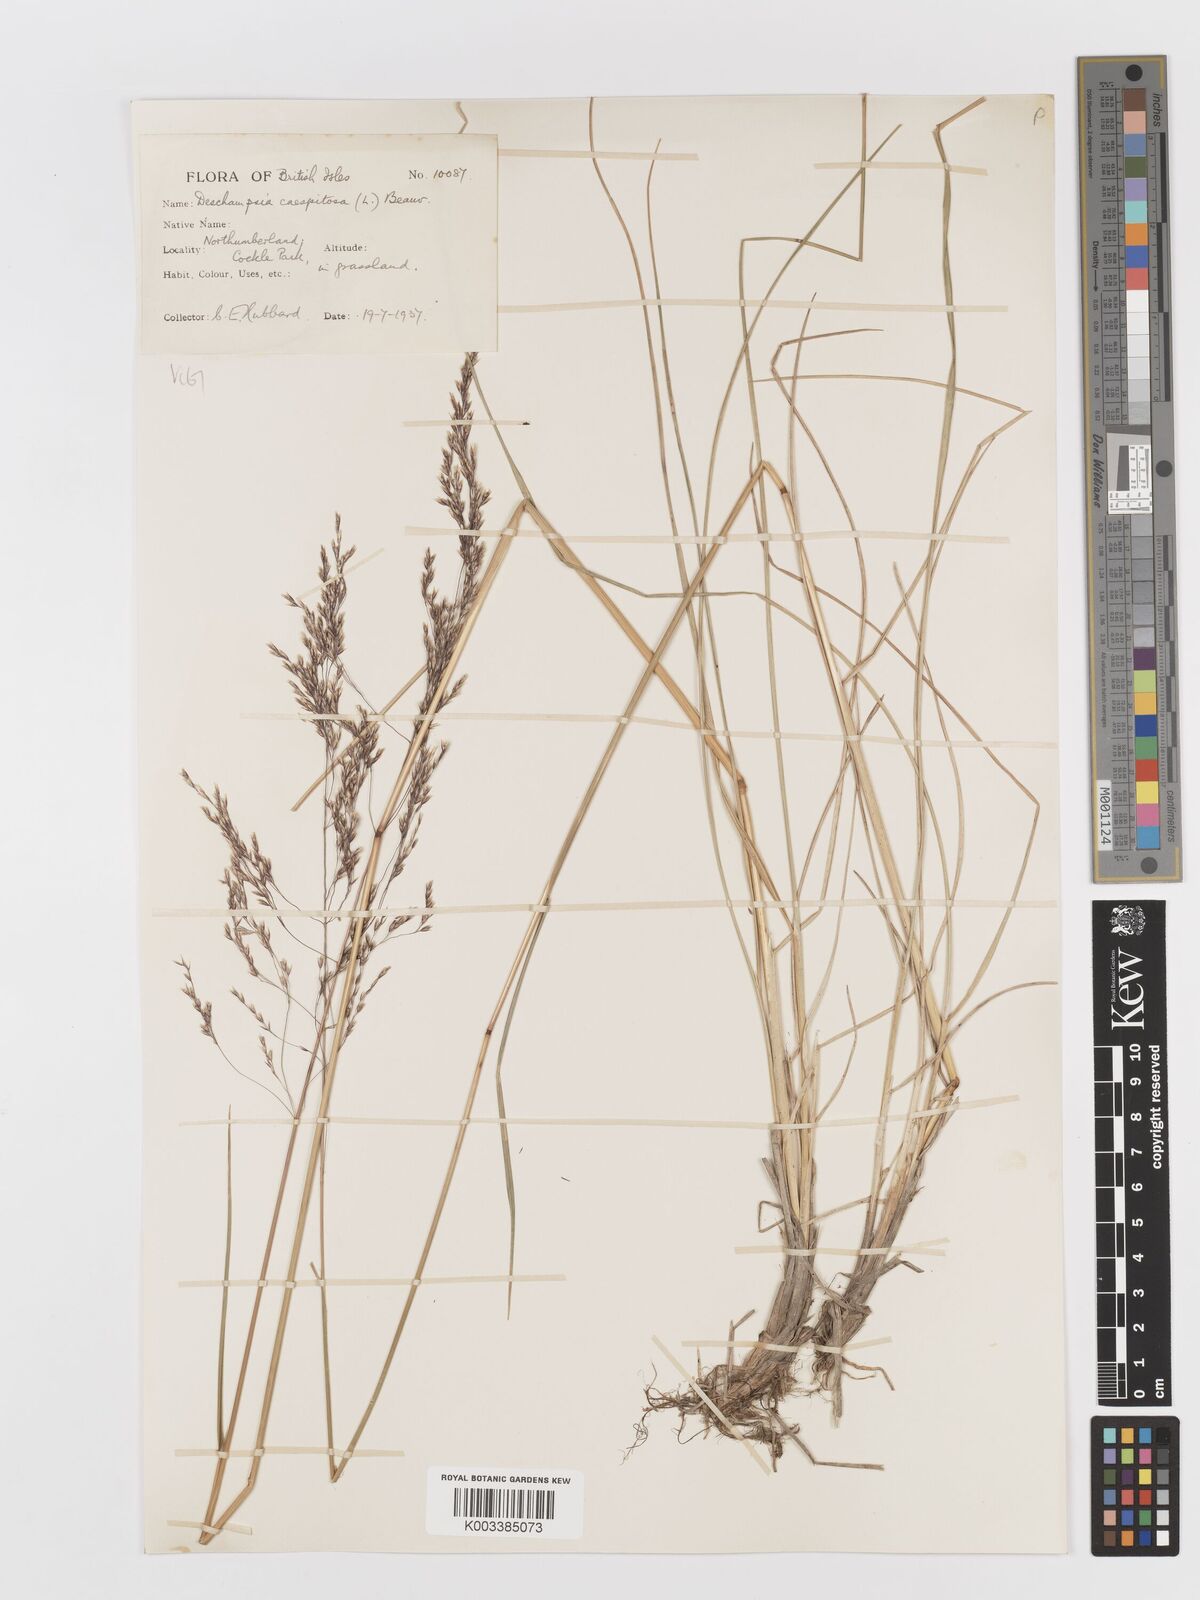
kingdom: Plantae
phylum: Tracheophyta
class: Liliopsida
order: Poales
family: Poaceae
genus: Deschampsia
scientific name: Deschampsia cespitosa
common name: Tufted hair-grass
